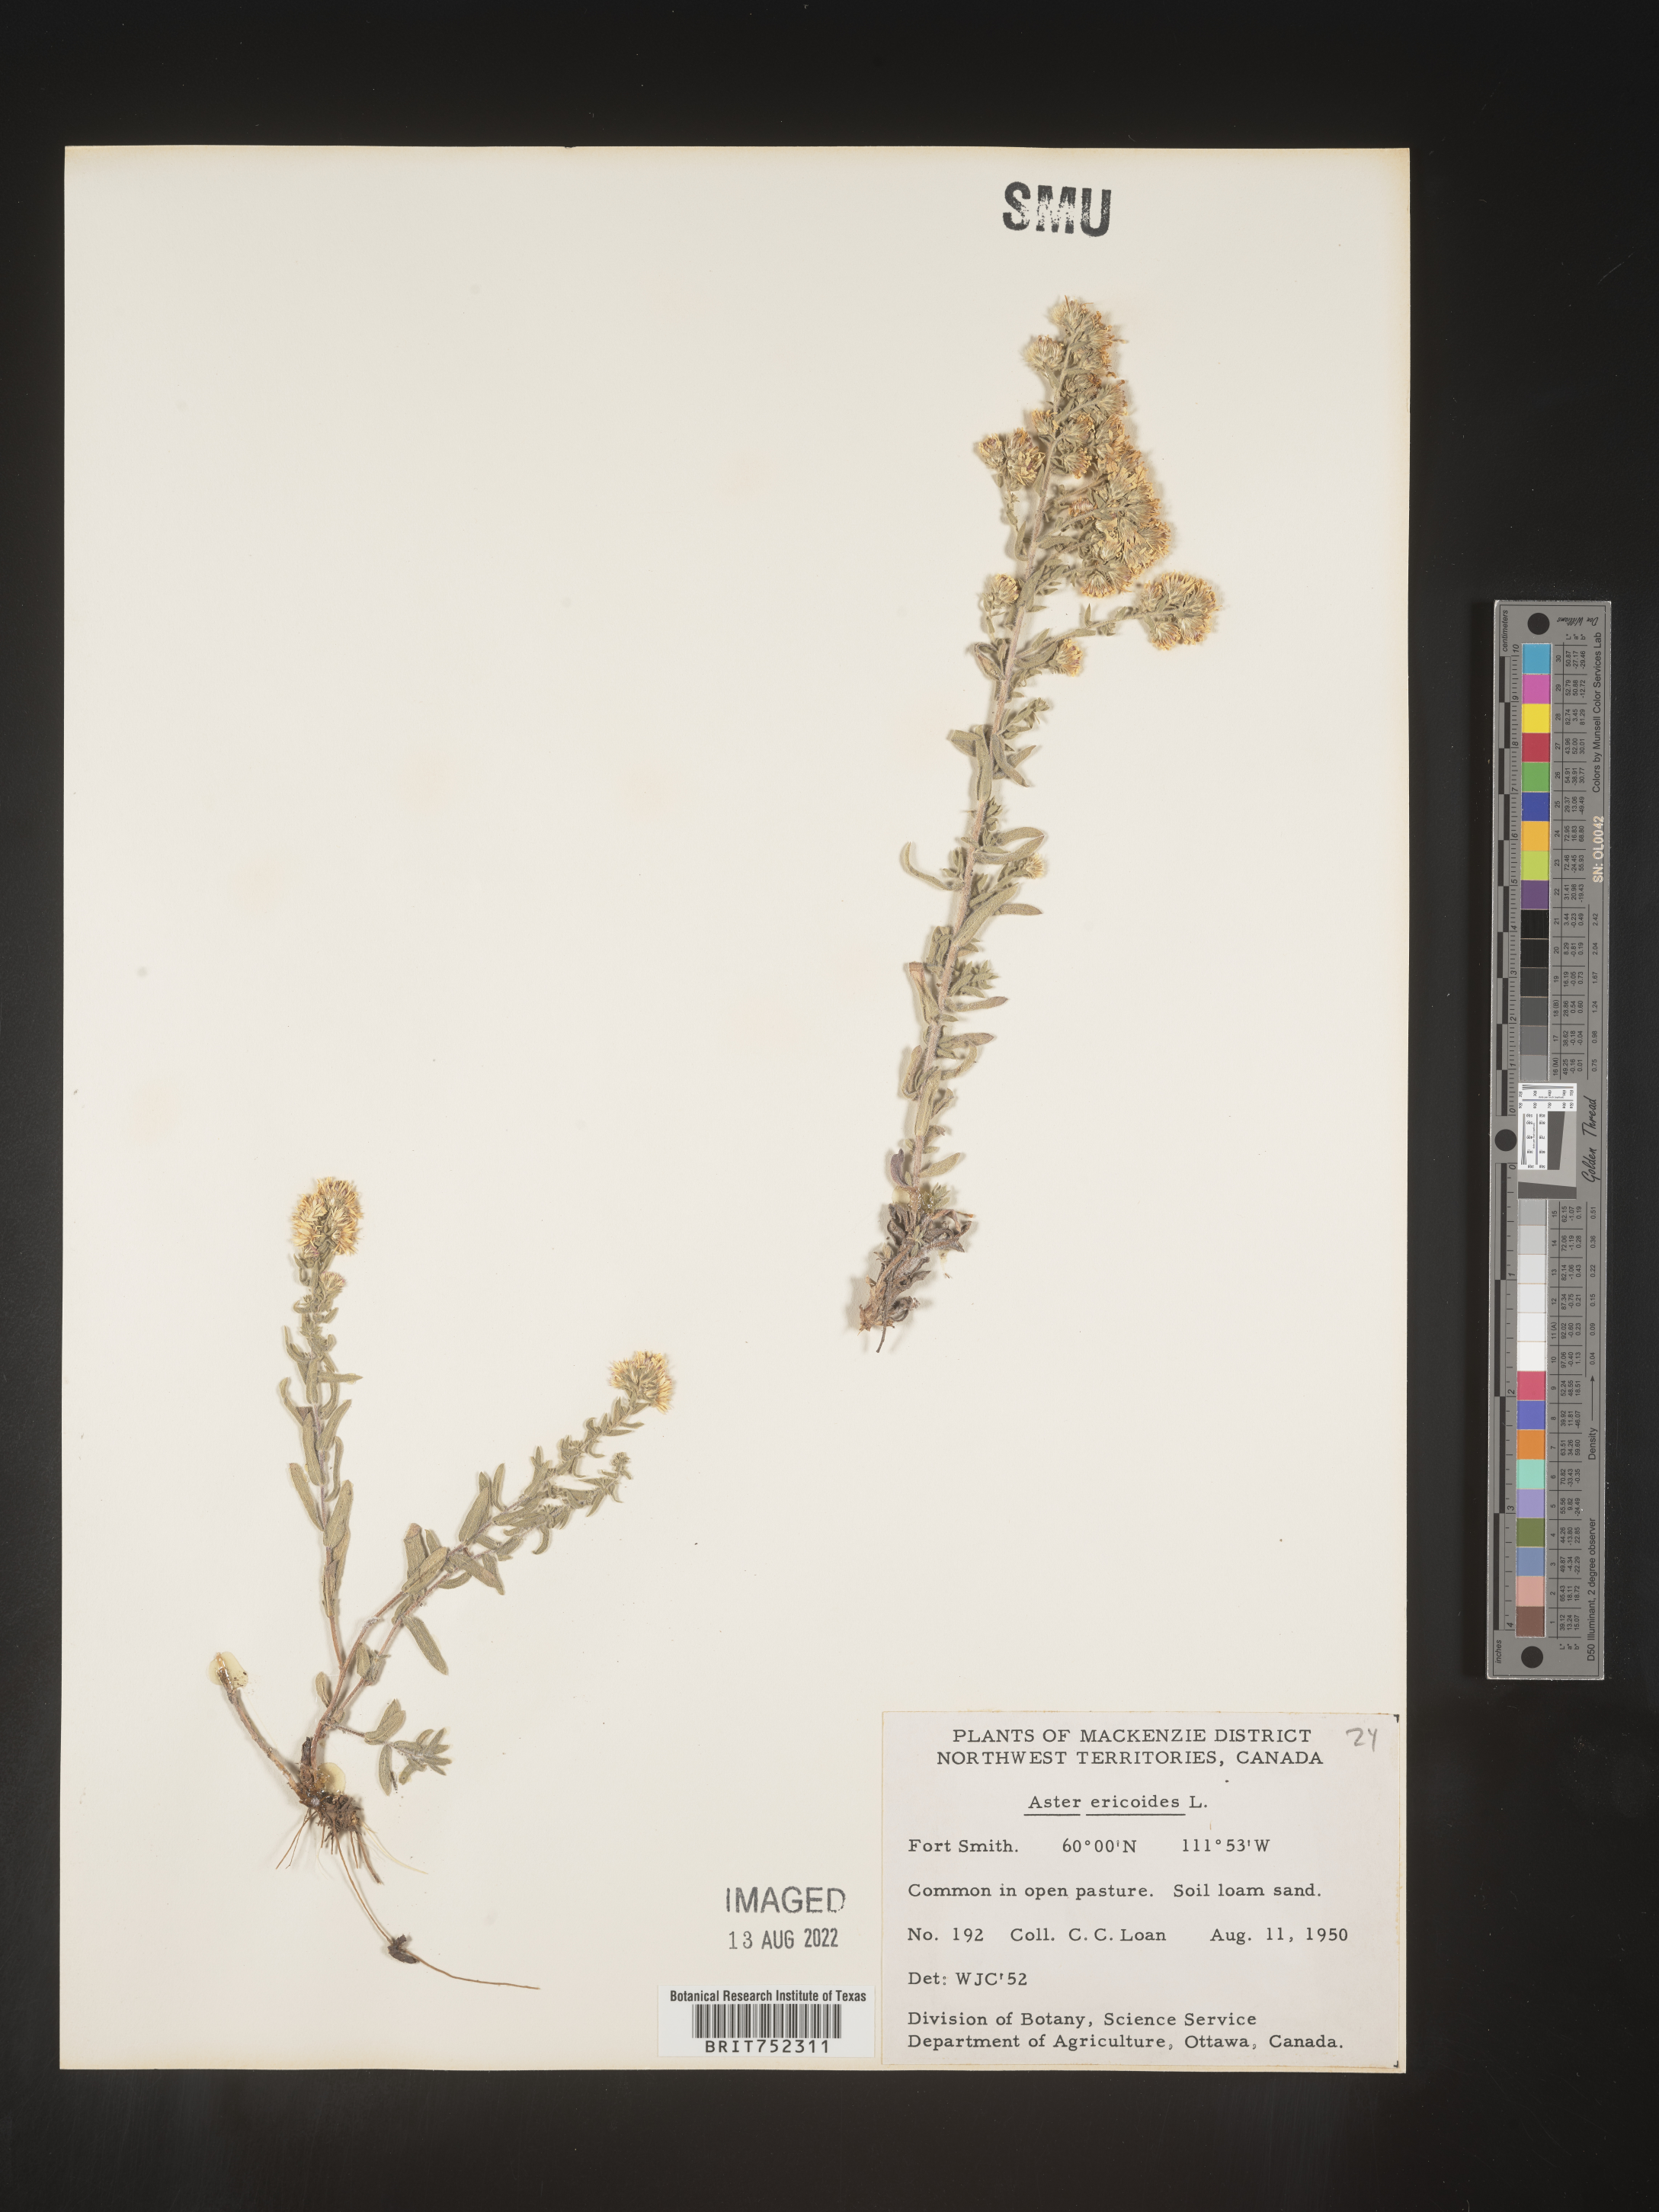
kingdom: Plantae
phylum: Tracheophyta
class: Magnoliopsida
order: Asterales
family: Asteraceae
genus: Symphyotrichum
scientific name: Symphyotrichum falcatum
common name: Creeping white prairie aster
